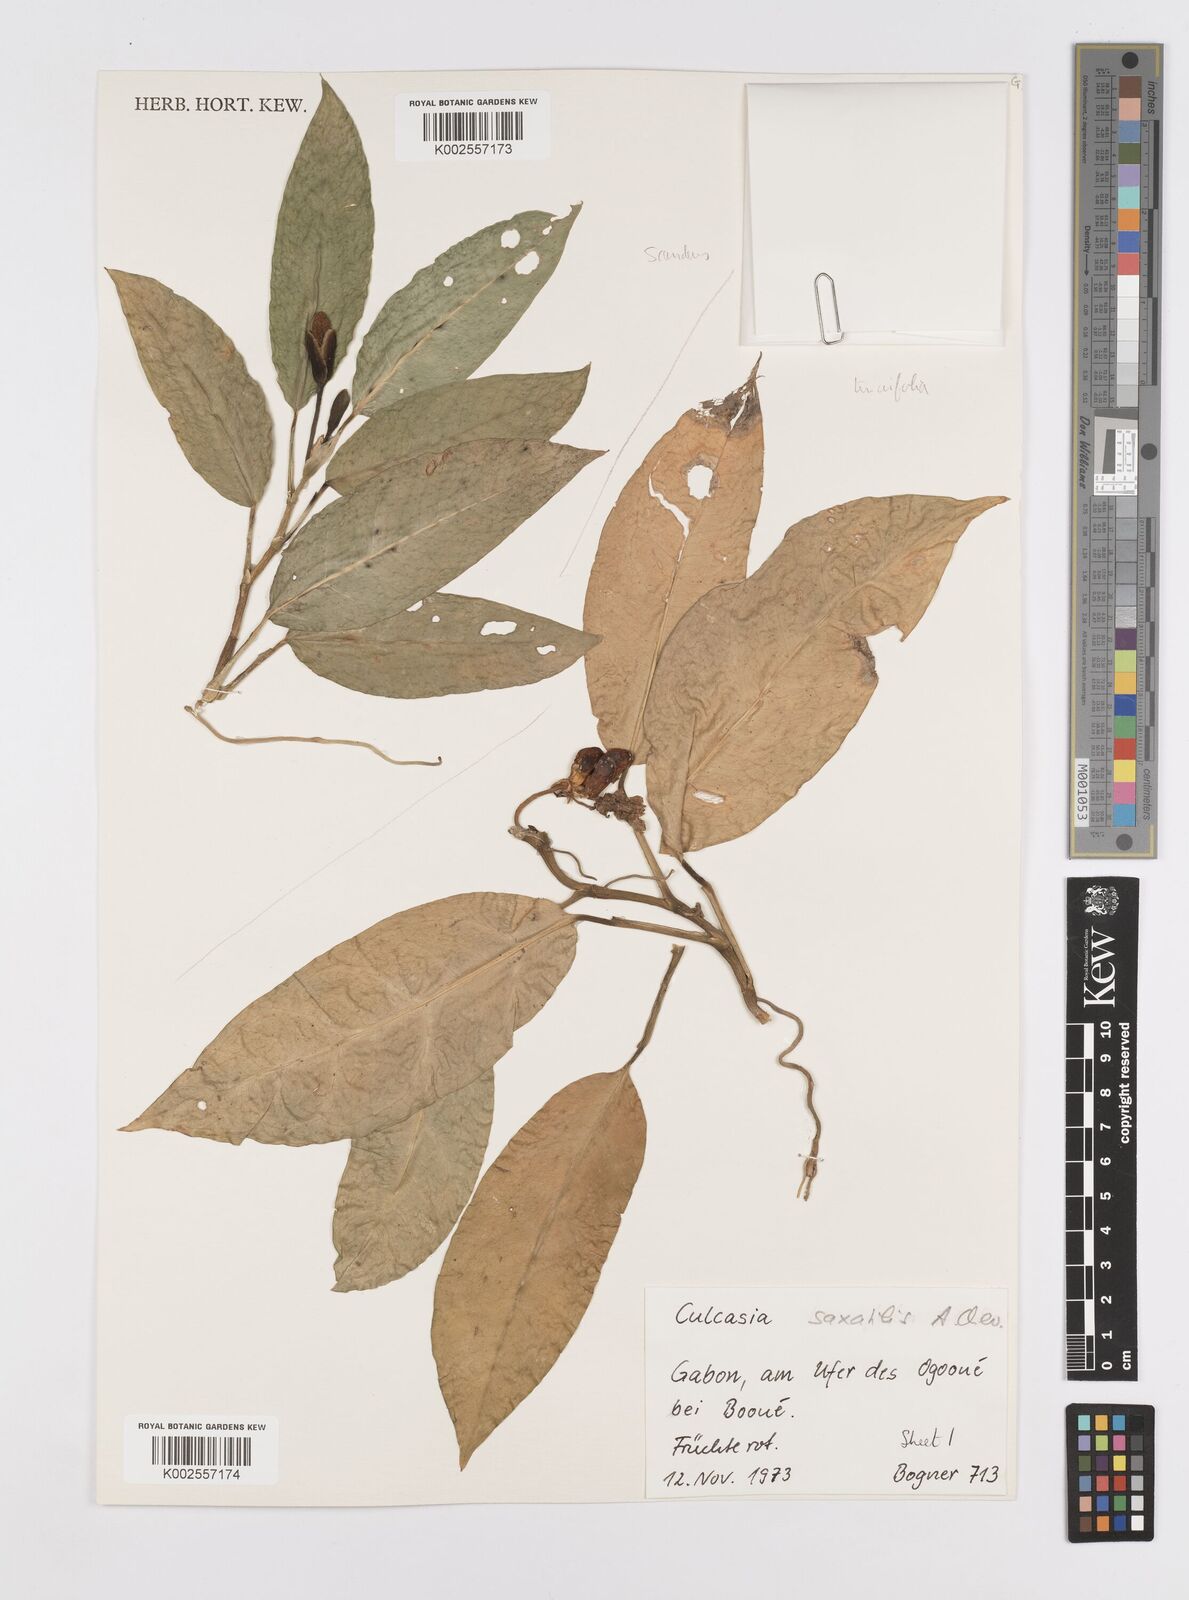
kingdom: Plantae
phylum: Tracheophyta
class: Liliopsida
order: Alismatales
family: Araceae
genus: Culcasia
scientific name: Culcasia scandens
